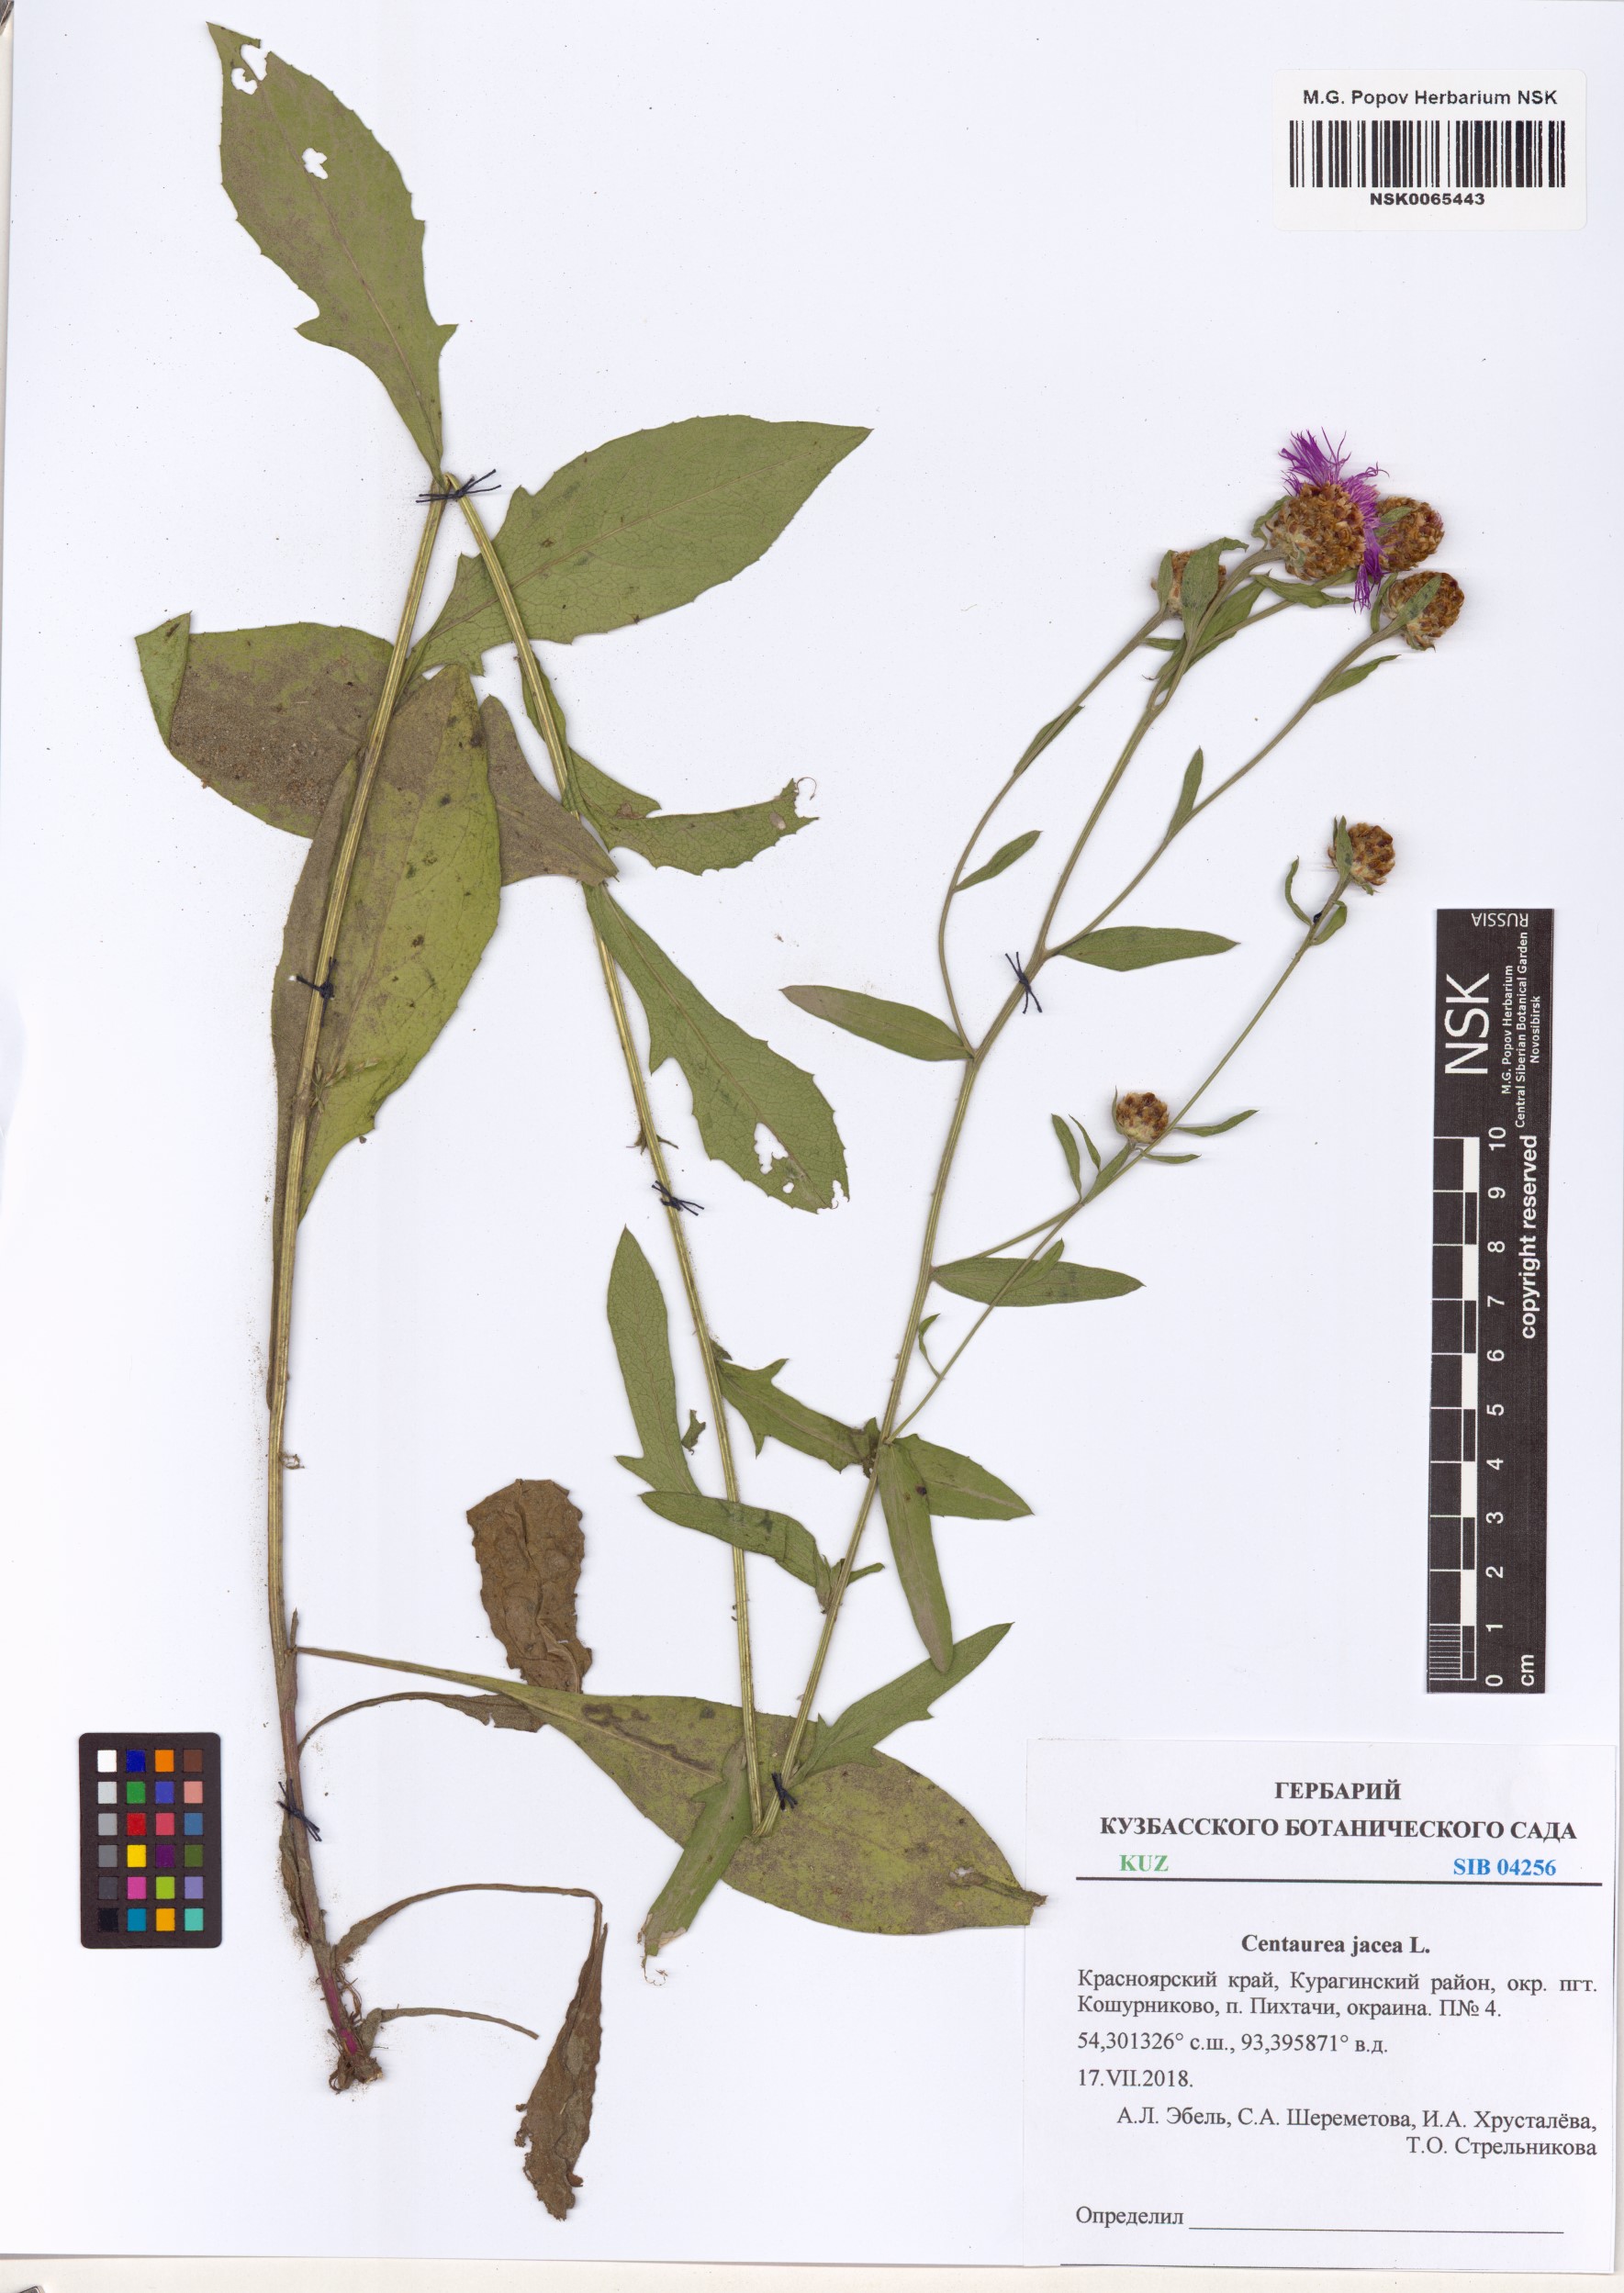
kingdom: Plantae
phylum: Tracheophyta
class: Magnoliopsida
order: Asterales
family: Asteraceae
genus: Centaurea
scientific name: Centaurea jacea
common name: Brown knapweed
